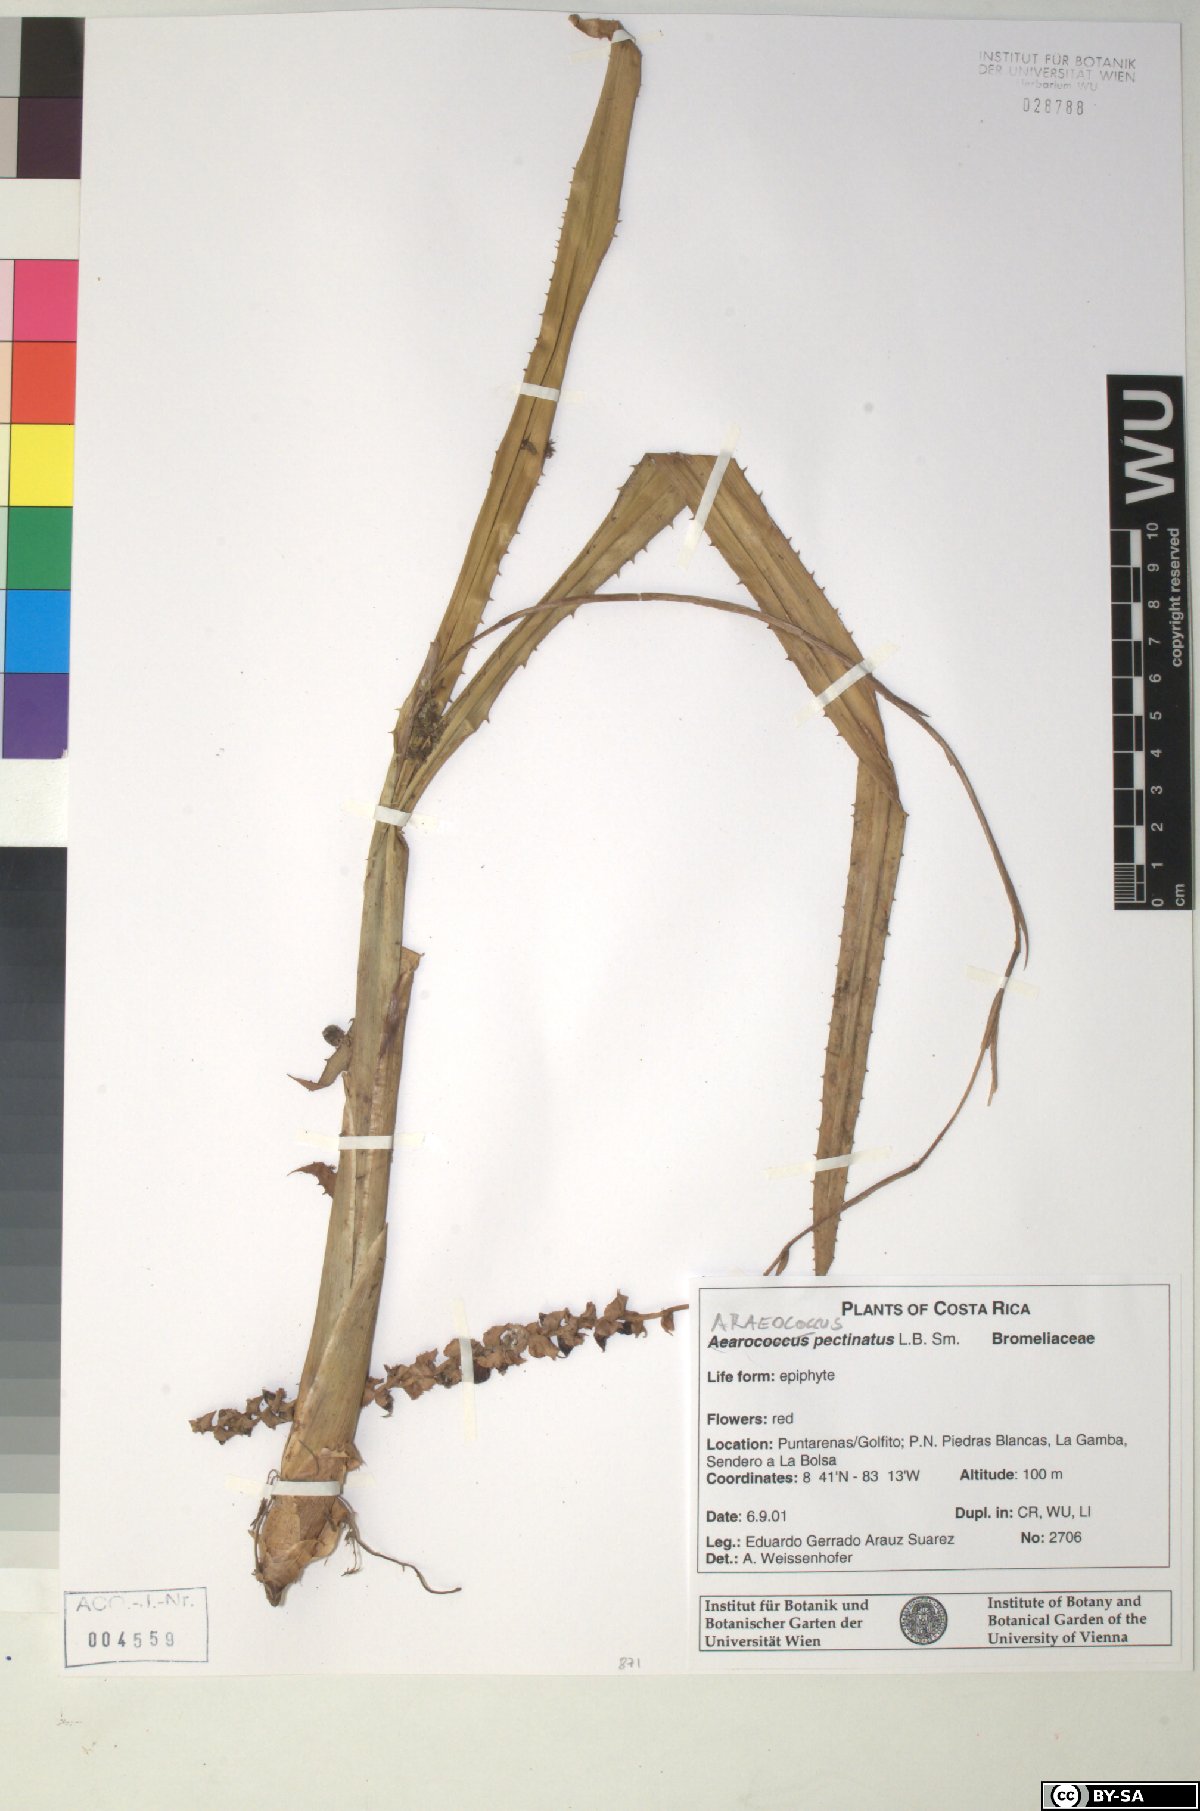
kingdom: Plantae
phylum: Tracheophyta
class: Liliopsida
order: Poales
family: Bromeliaceae
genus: Araeococcus
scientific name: Araeococcus pectinatus
